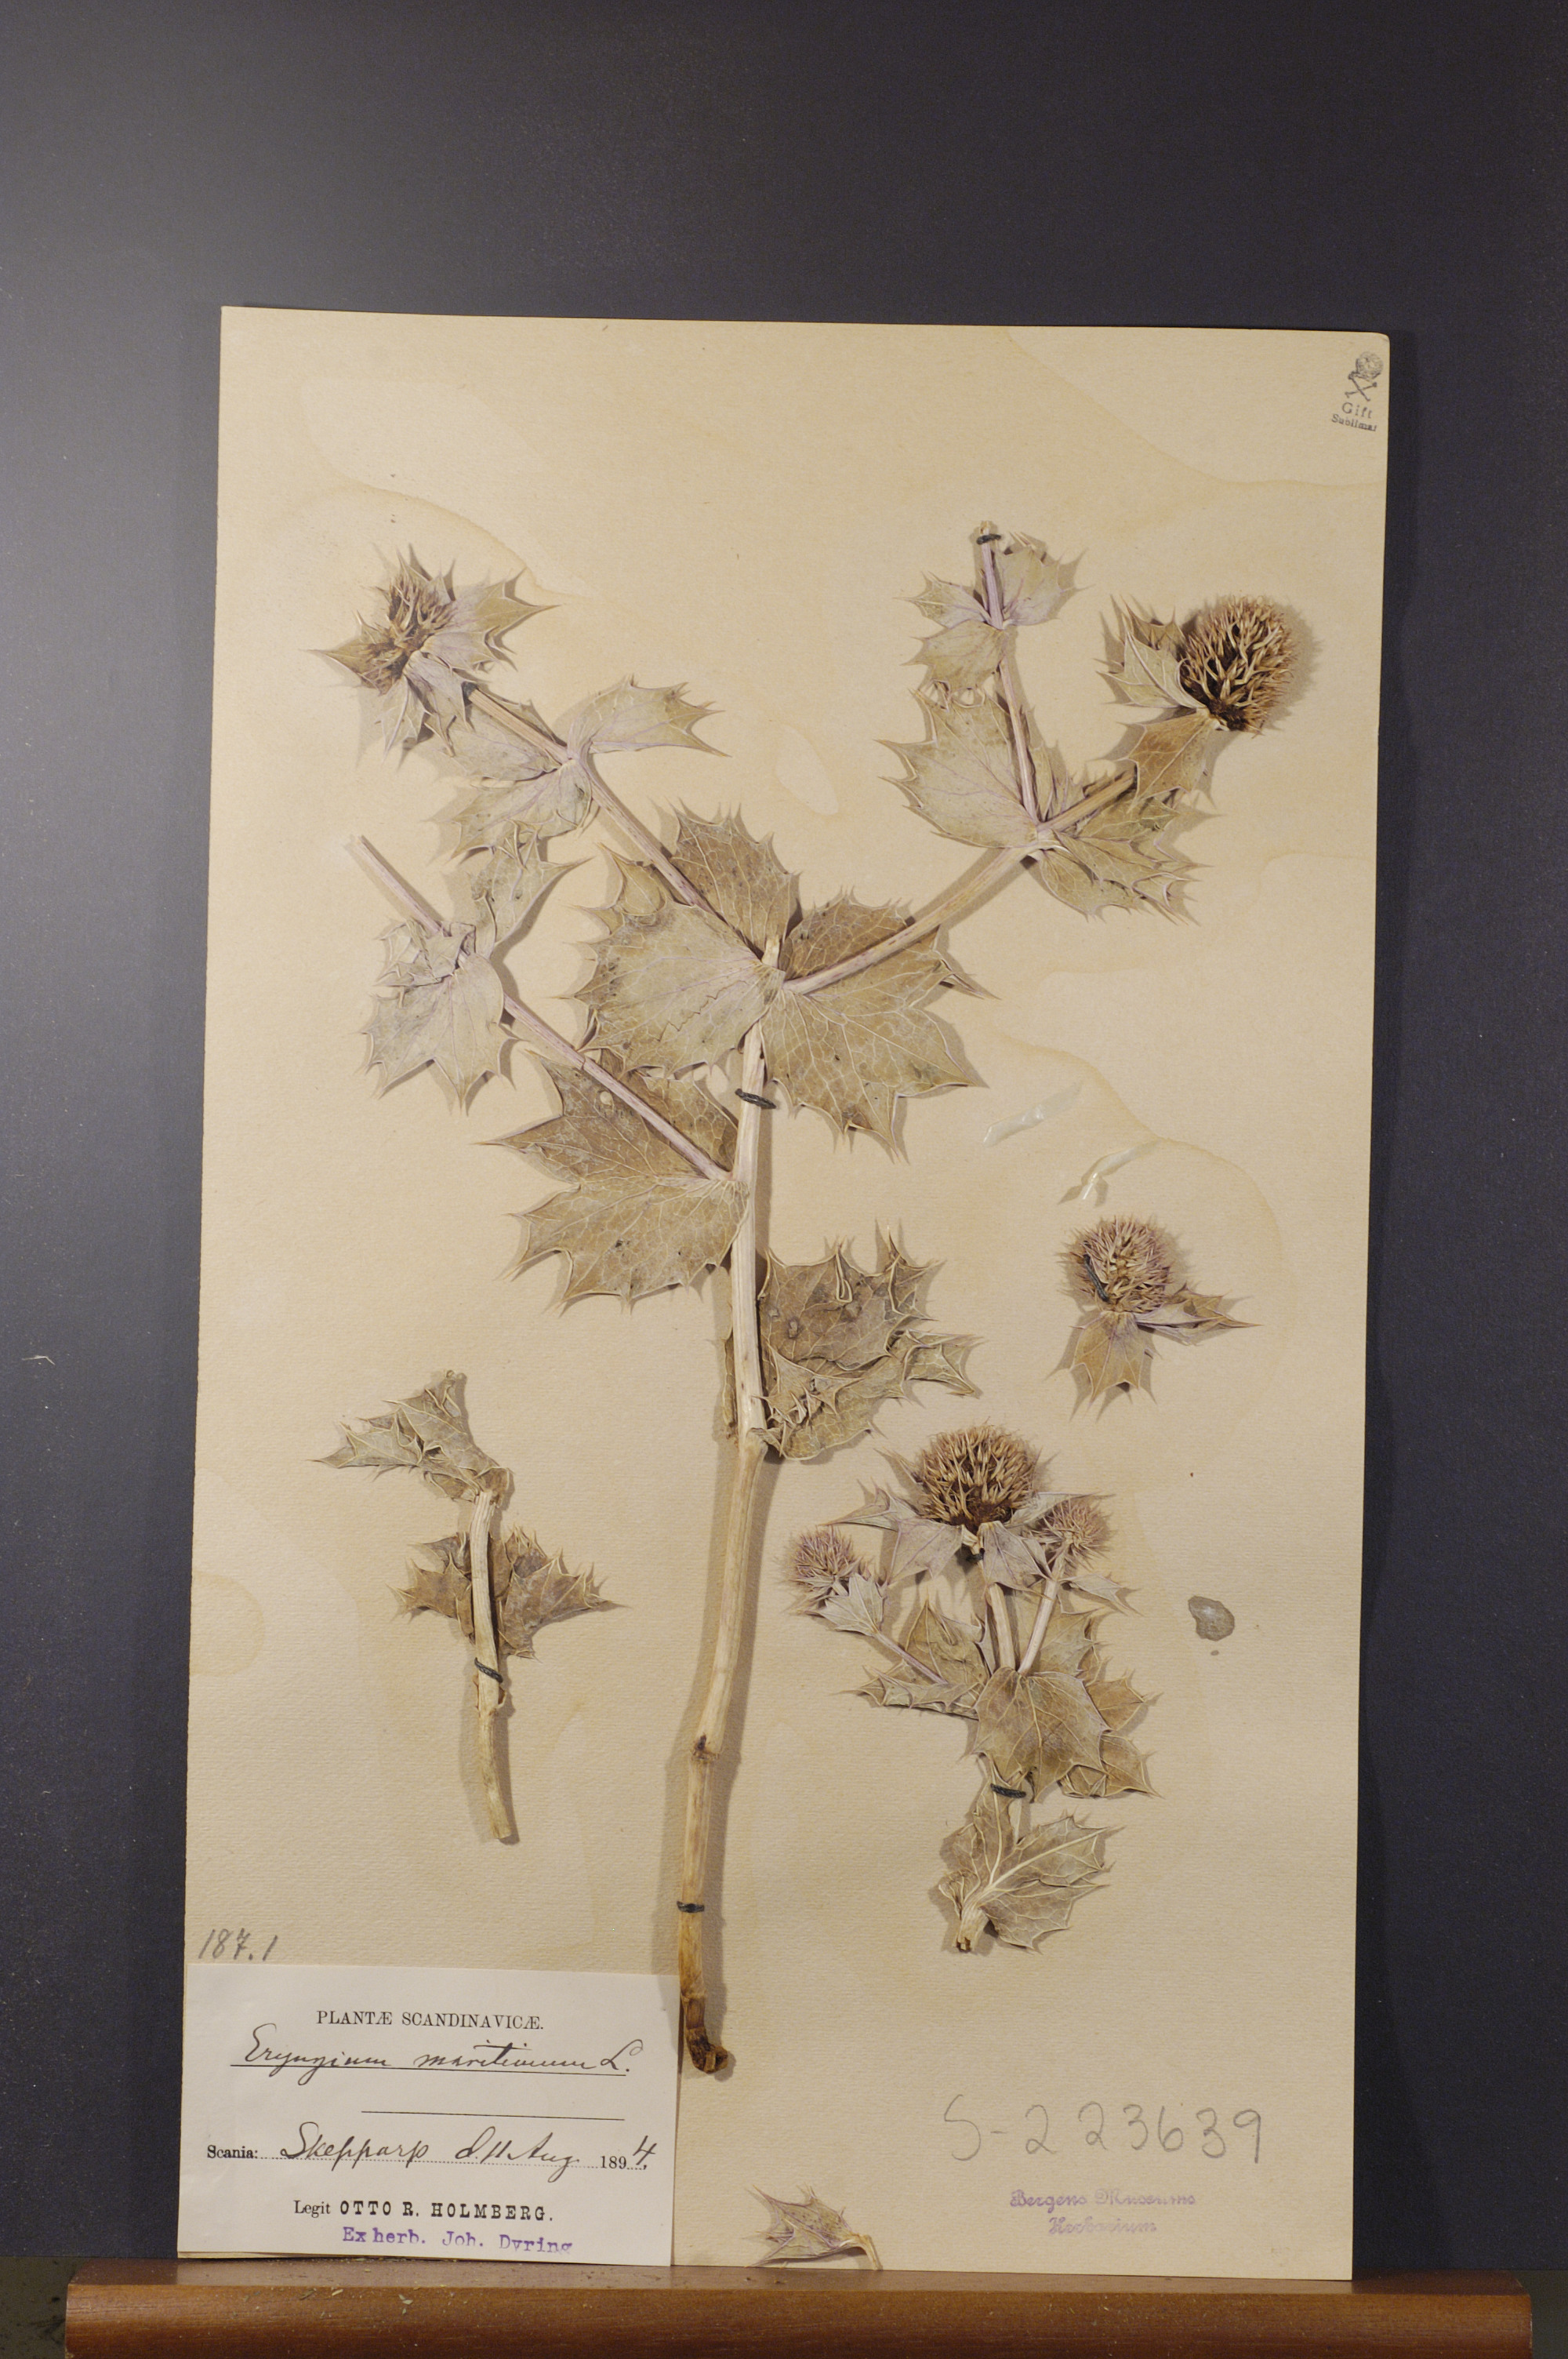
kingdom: Plantae
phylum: Tracheophyta
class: Magnoliopsida
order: Apiales
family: Apiaceae
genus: Eryngium
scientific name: Eryngium maritimum
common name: Sea-holly
